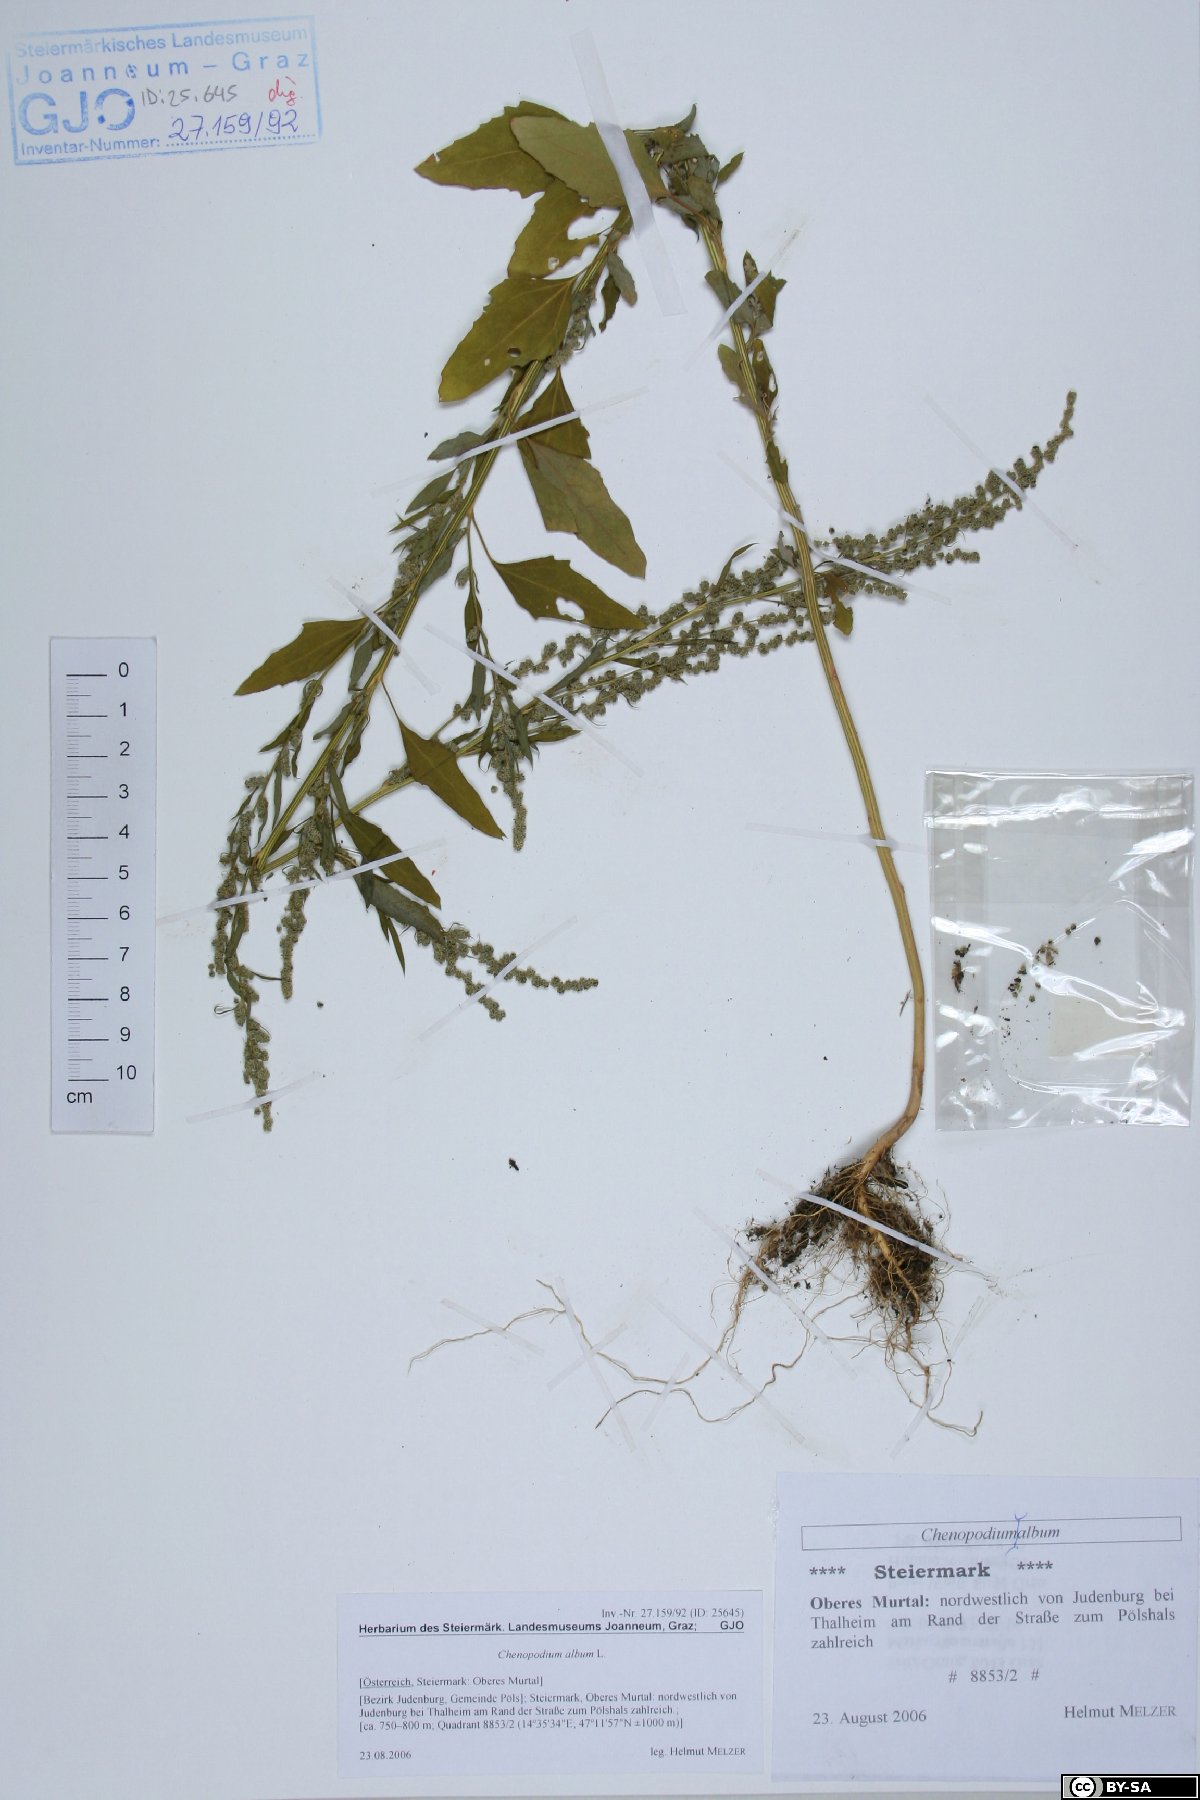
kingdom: Plantae
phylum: Tracheophyta
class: Magnoliopsida
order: Caryophyllales
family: Amaranthaceae
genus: Chenopodium
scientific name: Chenopodium album
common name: Fat-hen
